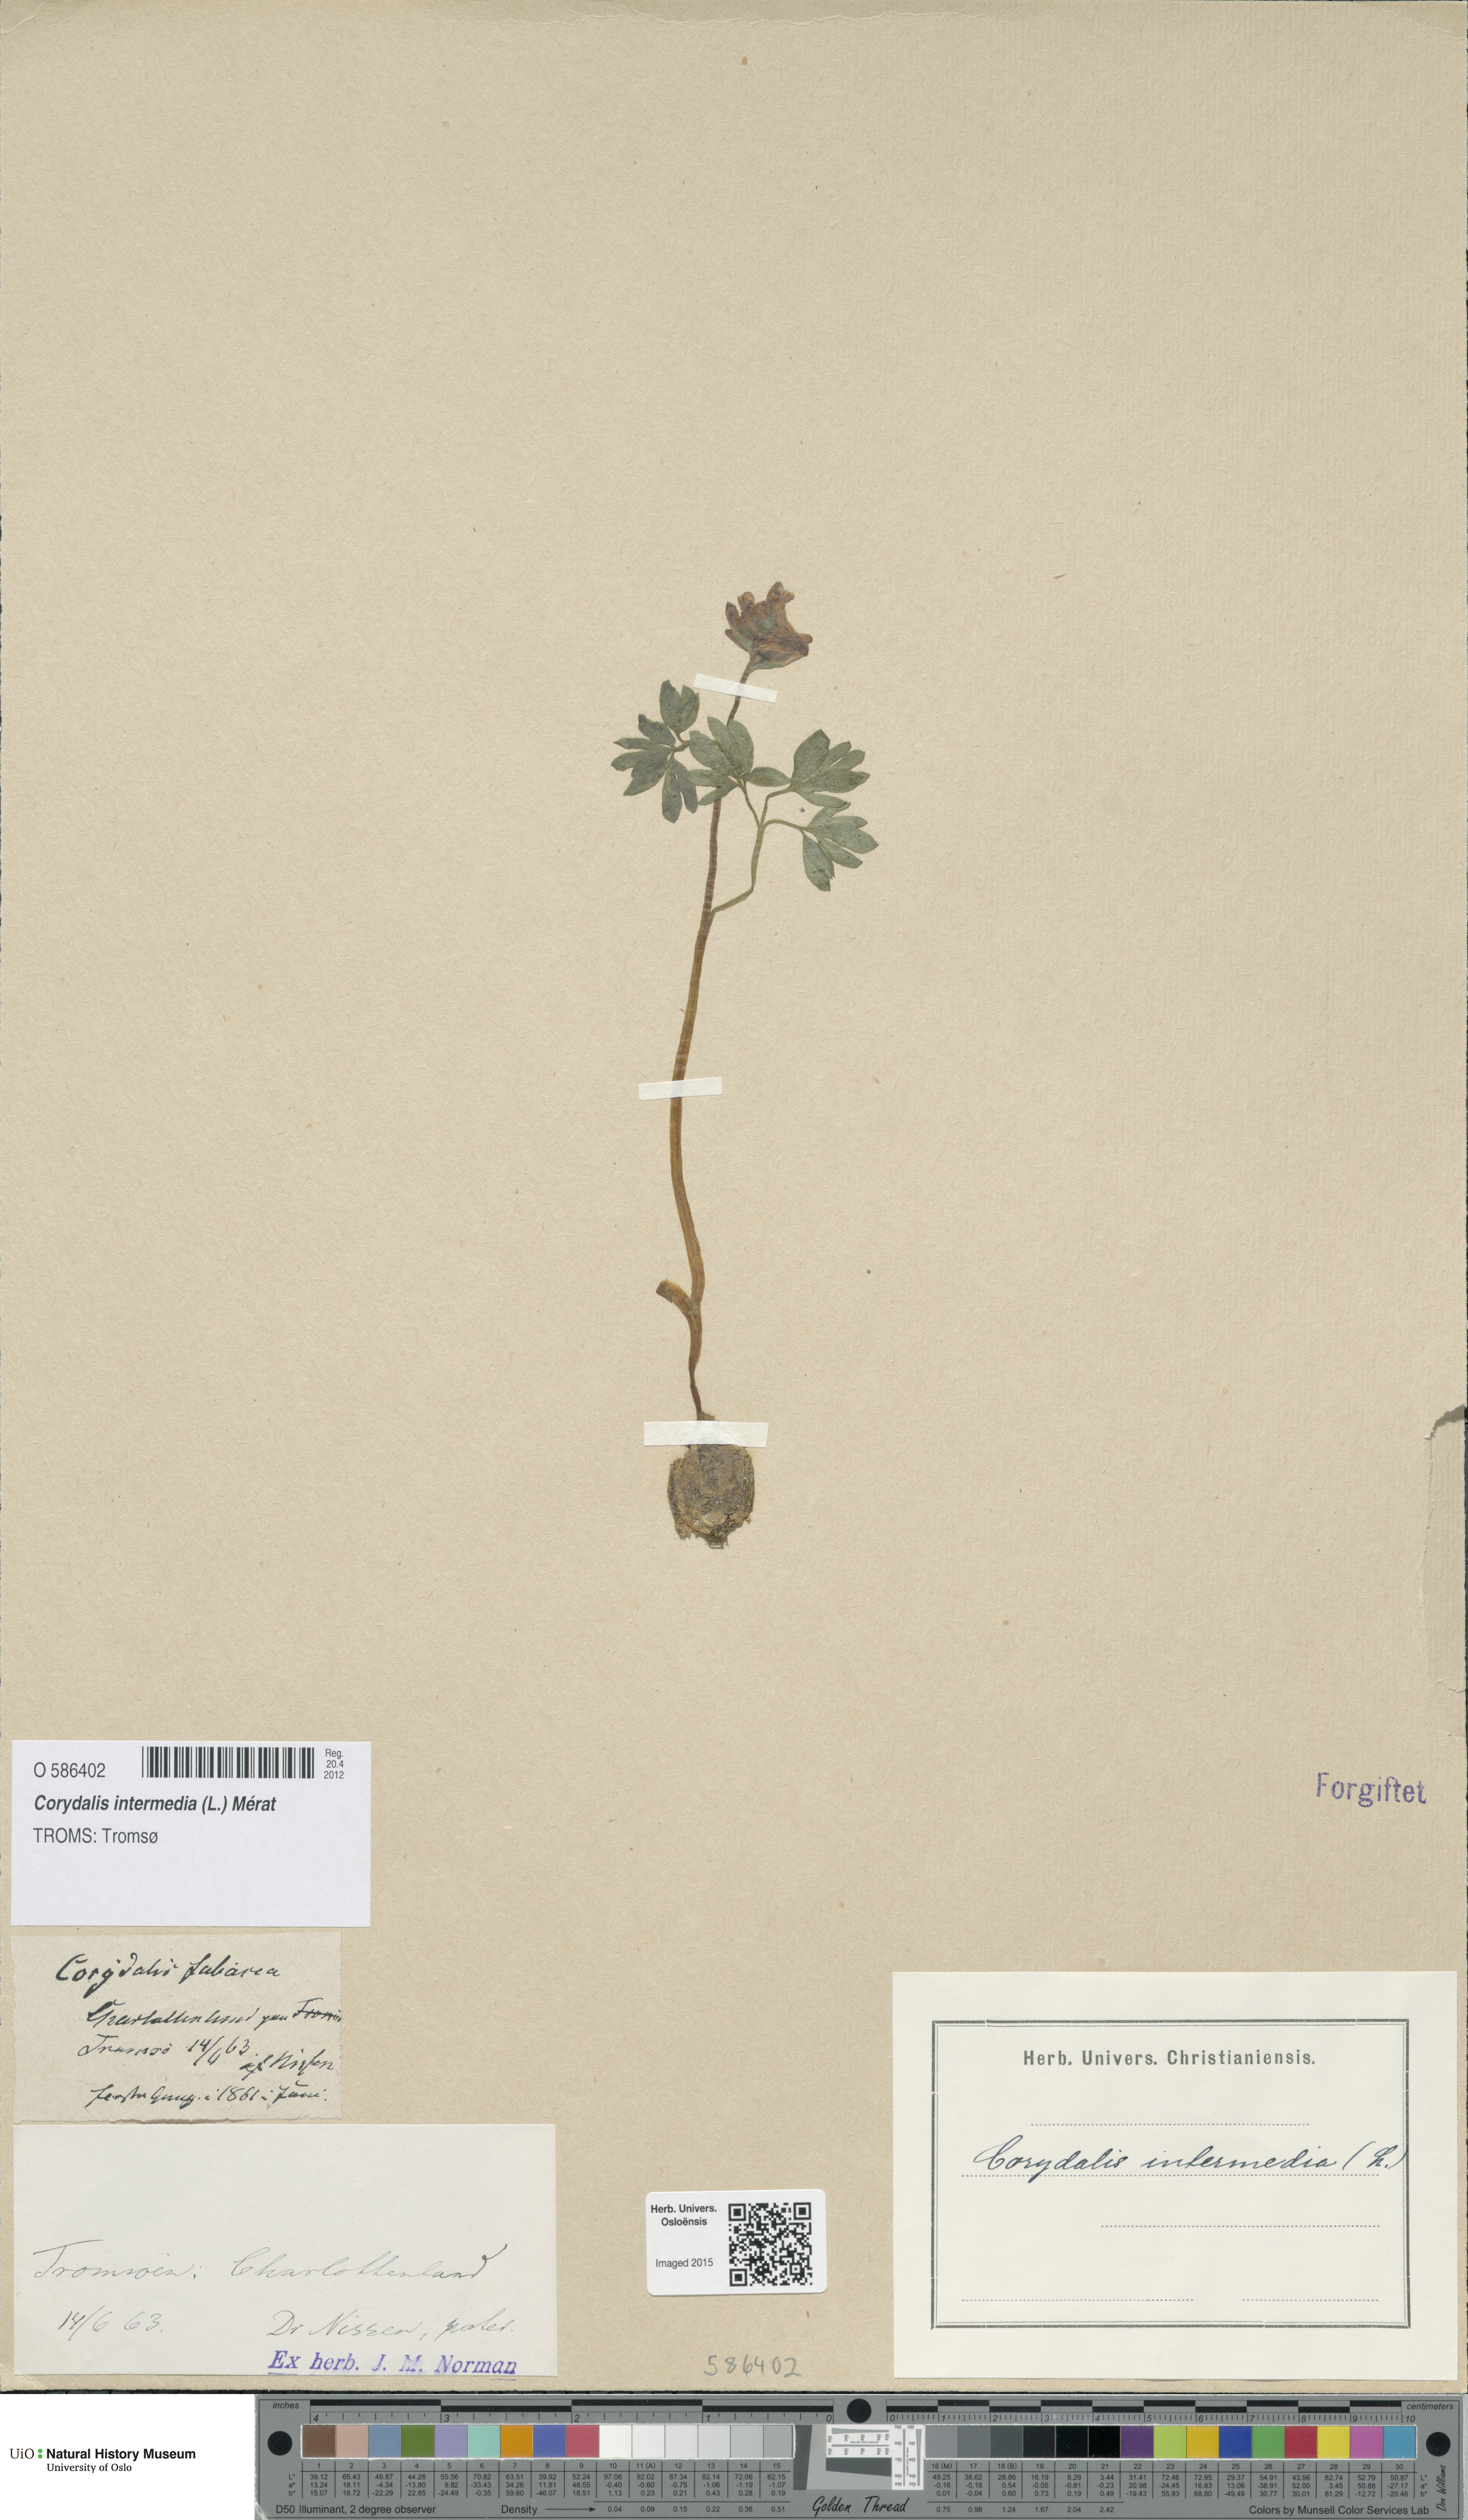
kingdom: Plantae
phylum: Tracheophyta
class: Magnoliopsida
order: Ranunculales
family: Papaveraceae
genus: Corydalis
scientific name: Corydalis intermedia
